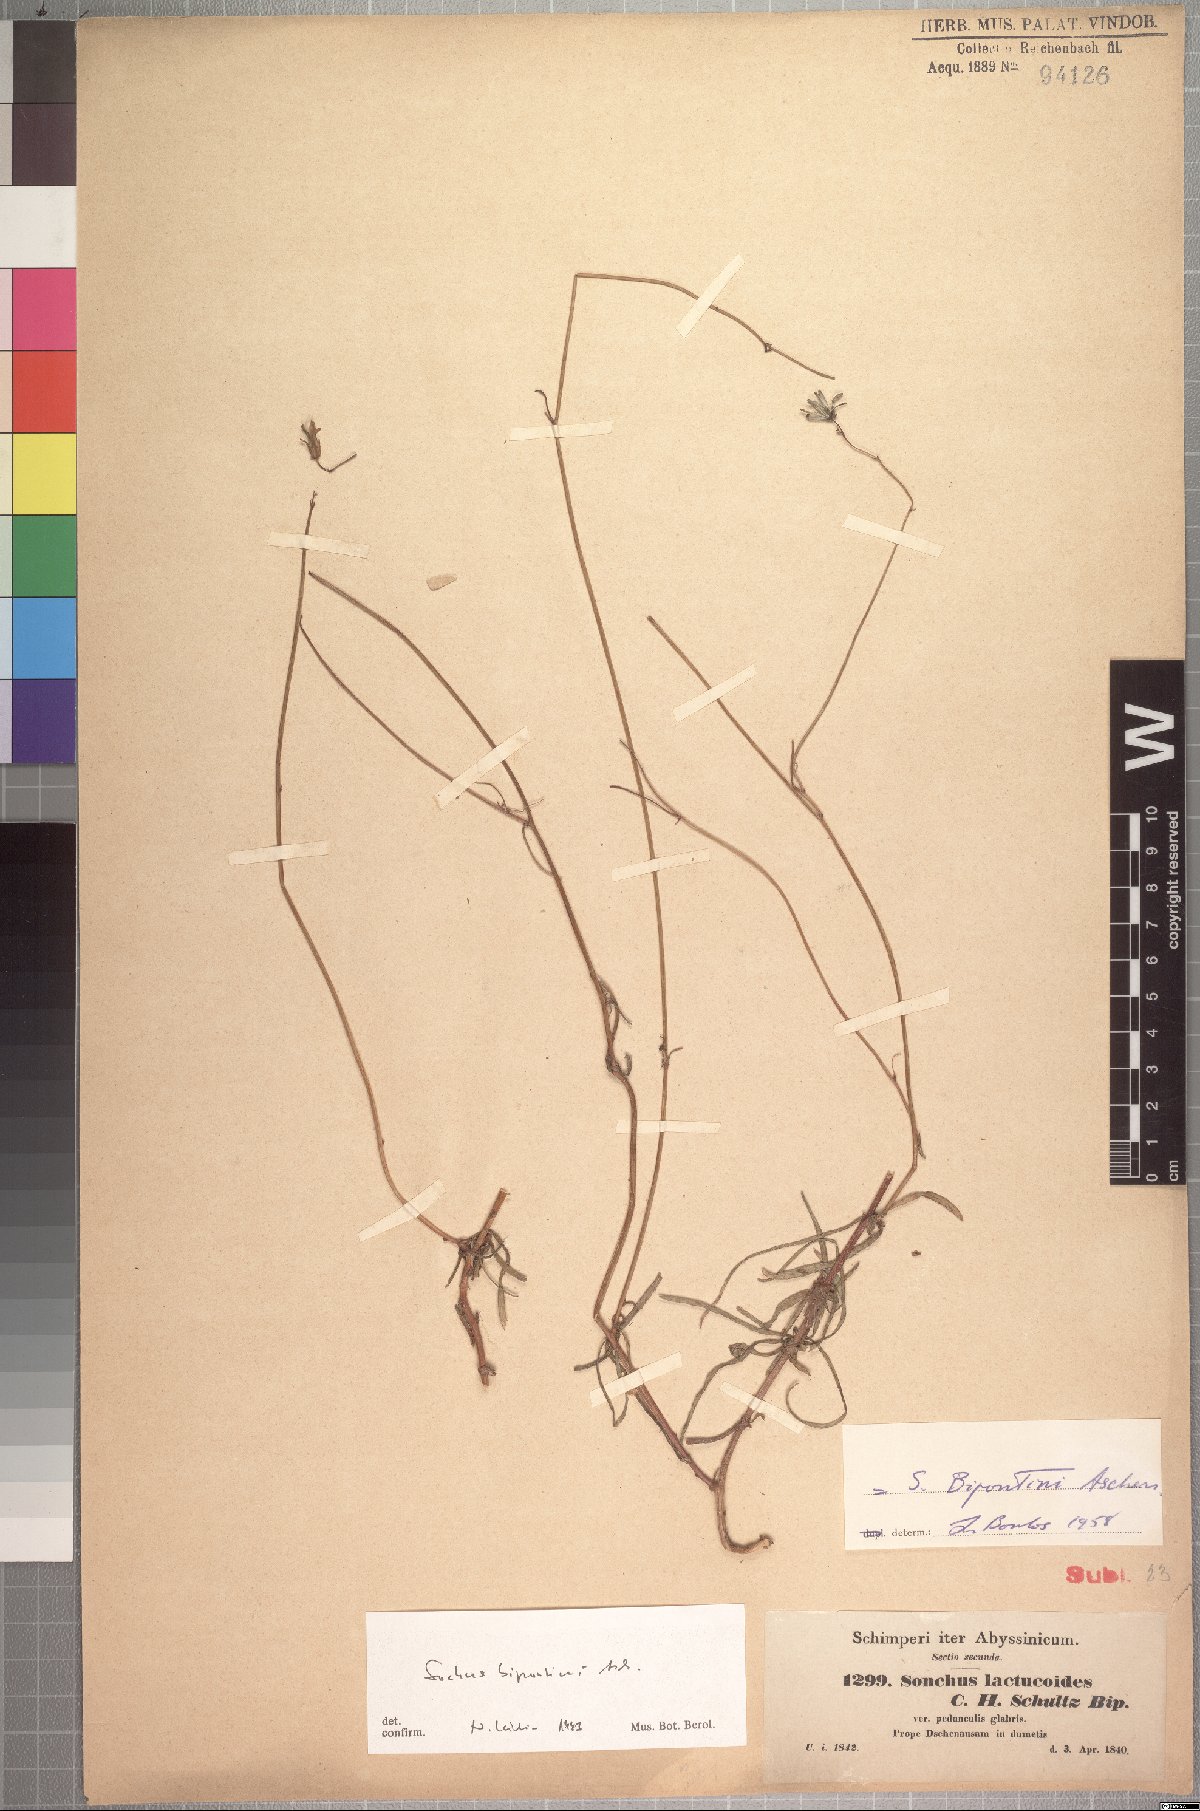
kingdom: Plantae
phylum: Tracheophyta
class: Magnoliopsida
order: Asterales
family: Asteraceae
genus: Sonchus
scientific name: Sonchus bipontini
